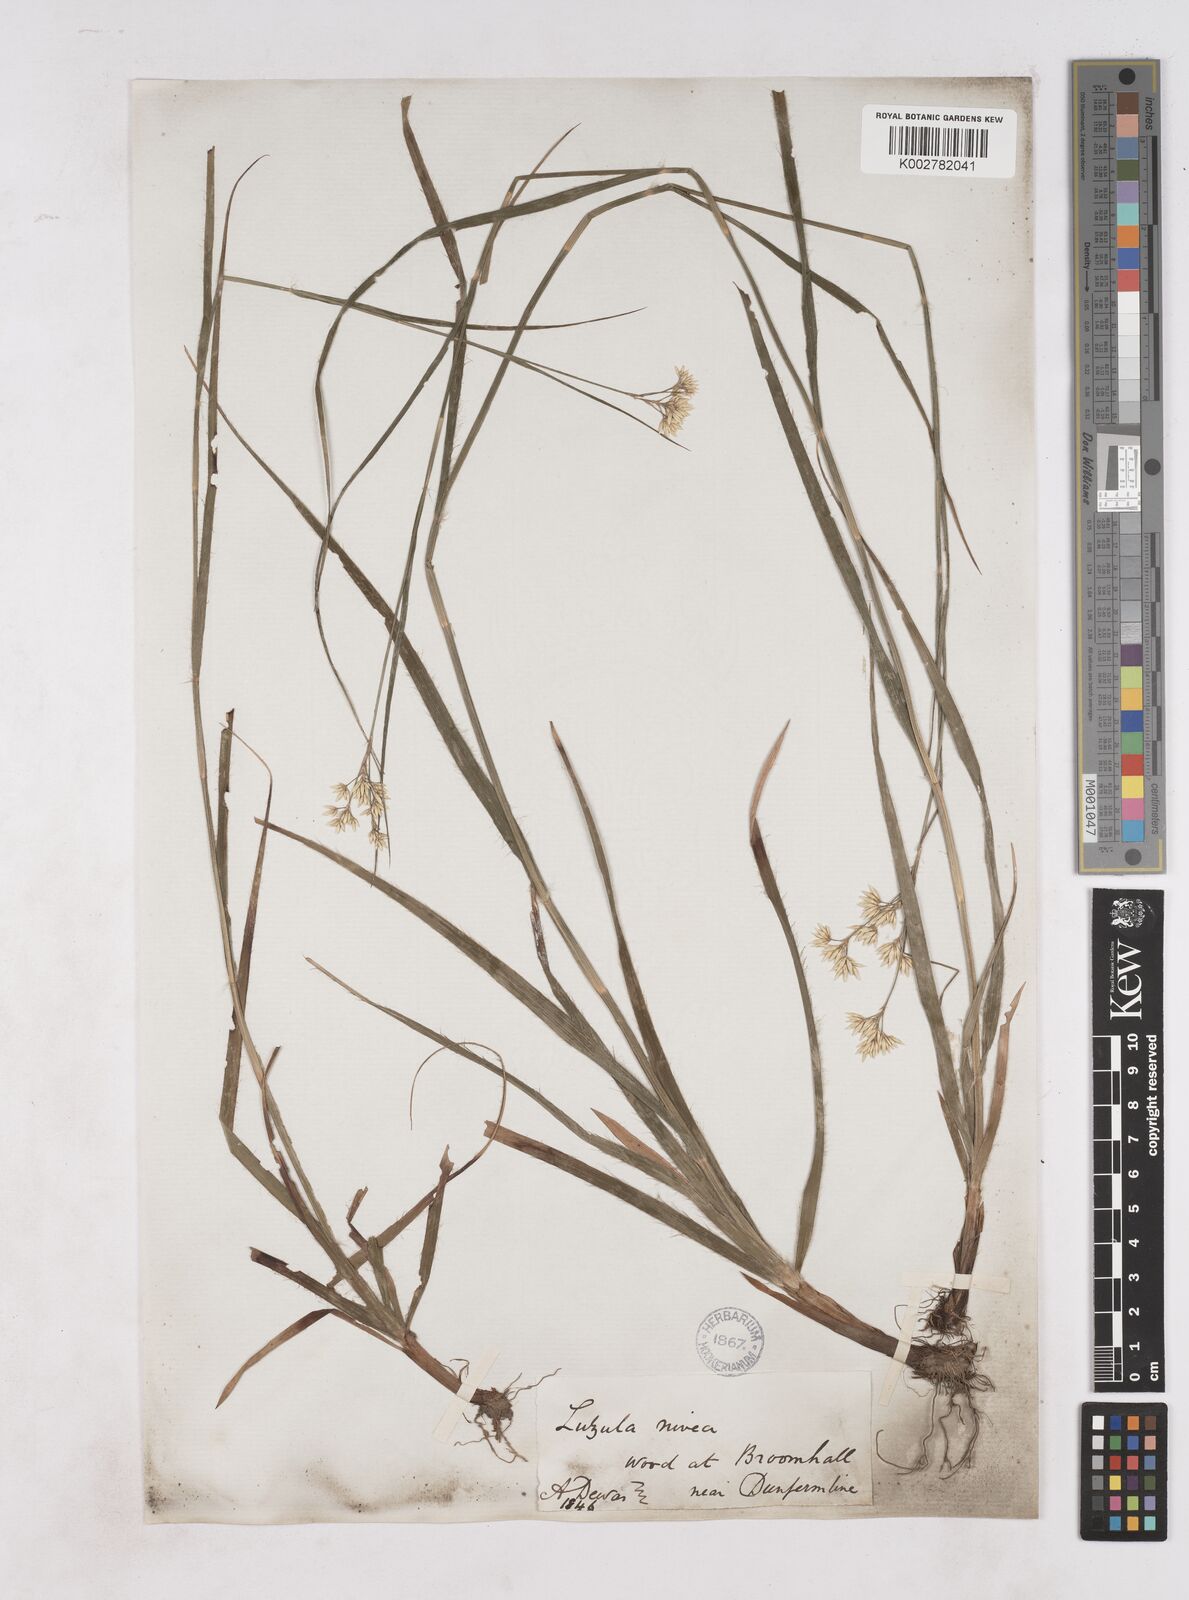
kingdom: Plantae
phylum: Tracheophyta
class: Liliopsida
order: Poales
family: Juncaceae
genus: Luzula
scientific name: Luzula nivea
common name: Snow-white wood-rush
